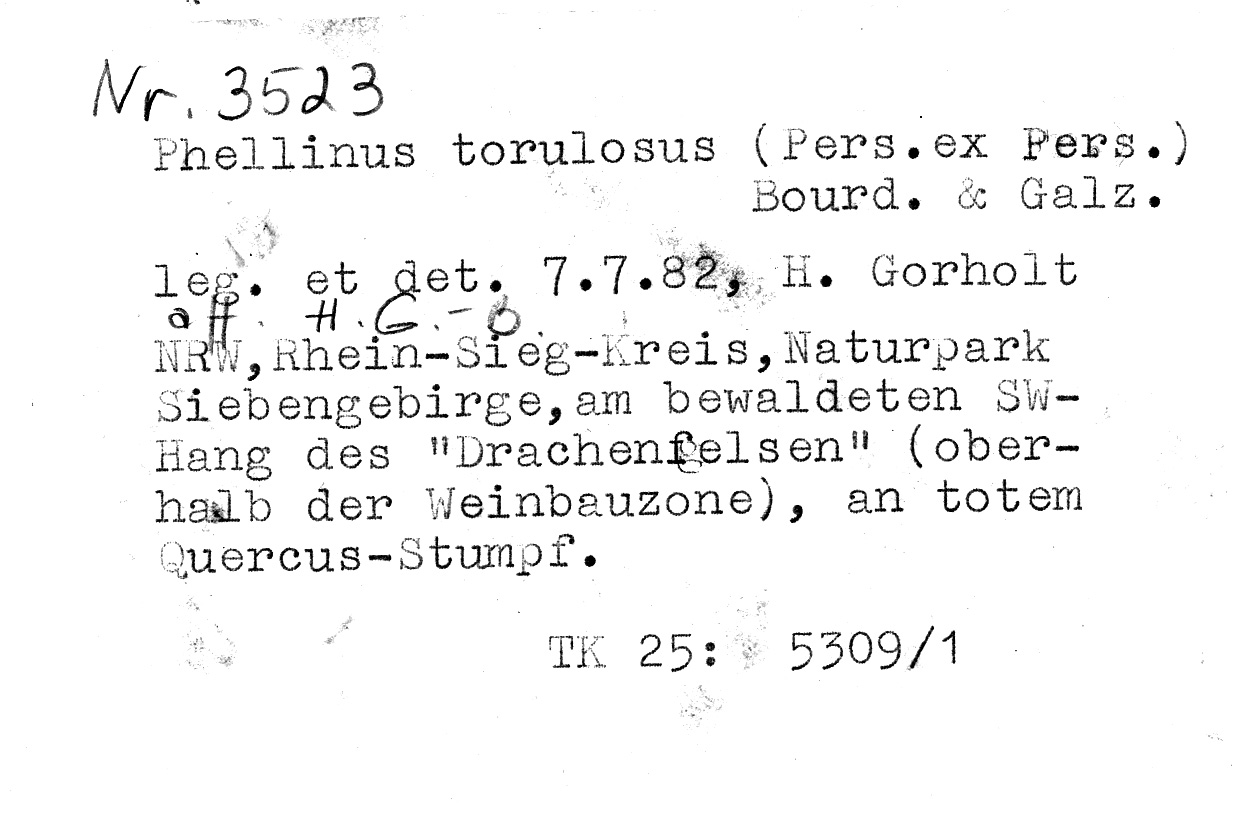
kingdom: Fungi
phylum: Basidiomycota
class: Agaricomycetes
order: Hymenochaetales
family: Hymenochaetaceae
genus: Fuscoporia
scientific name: Fuscoporia torulosa
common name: Tufted bracket
